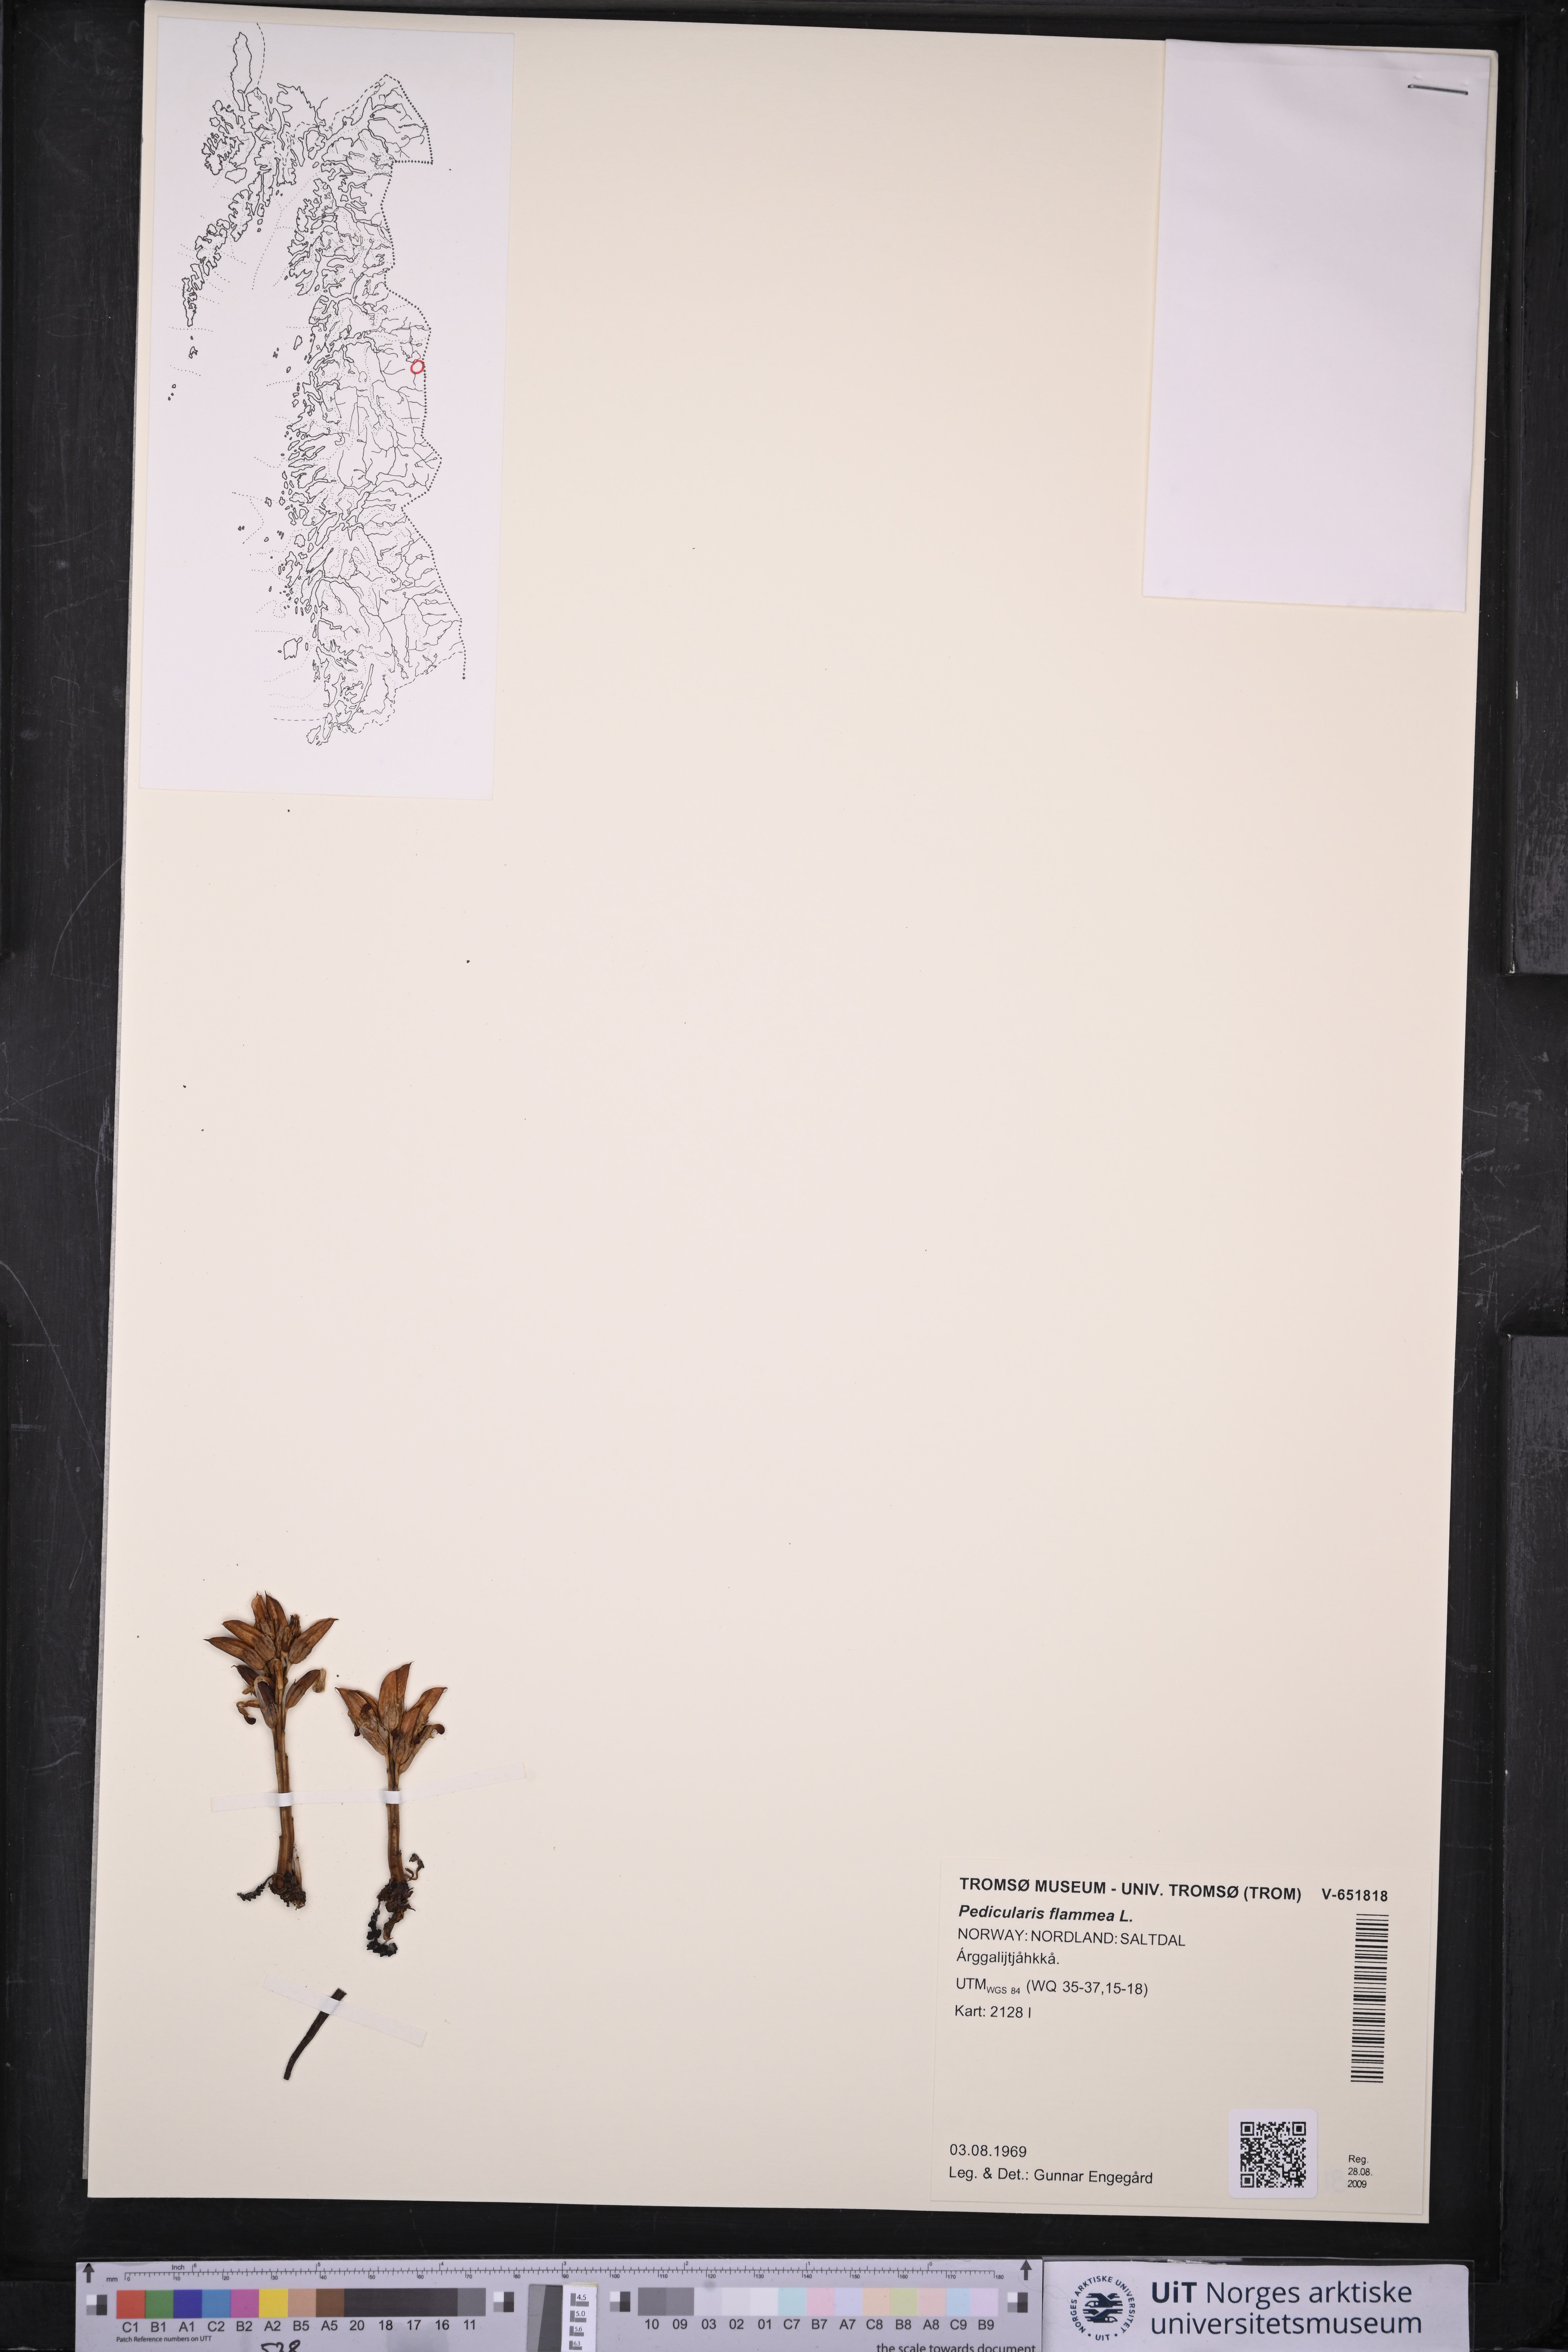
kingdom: Plantae
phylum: Tracheophyta
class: Magnoliopsida
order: Lamiales
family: Orobanchaceae
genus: Pedicularis
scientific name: Pedicularis flammea
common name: Flame-coloured lousewort
